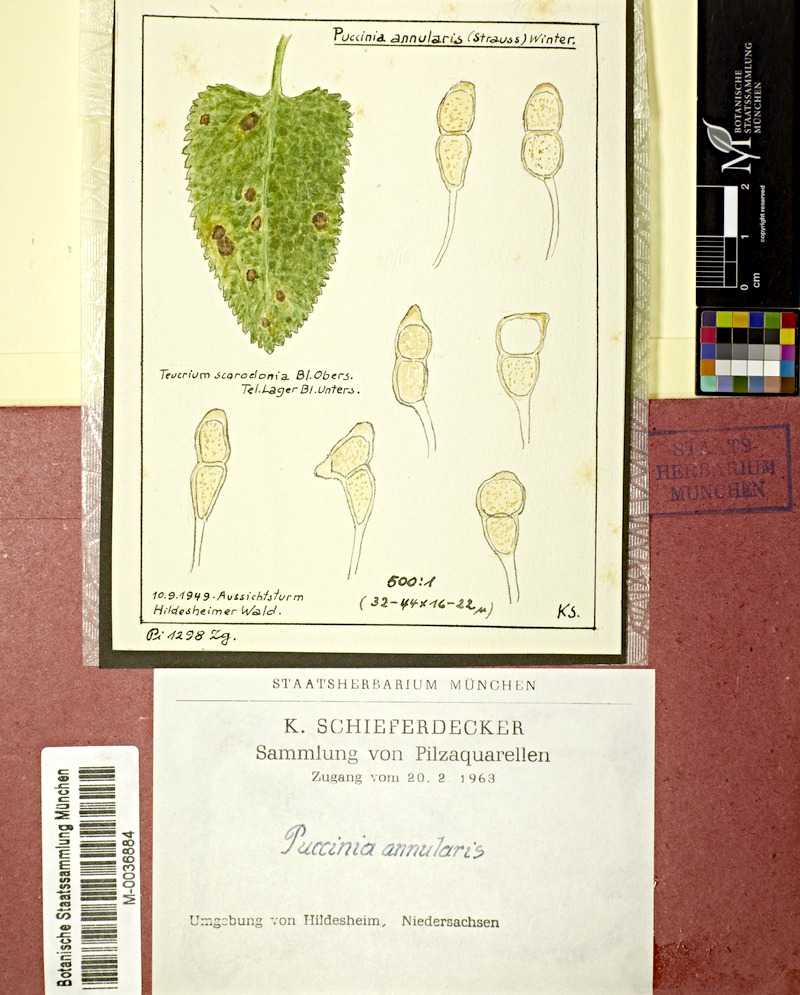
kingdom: Plantae
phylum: Tracheophyta
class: Magnoliopsida
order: Lamiales
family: Lamiaceae
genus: Teucrium
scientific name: Teucrium scorodonia
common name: Woodland germander
